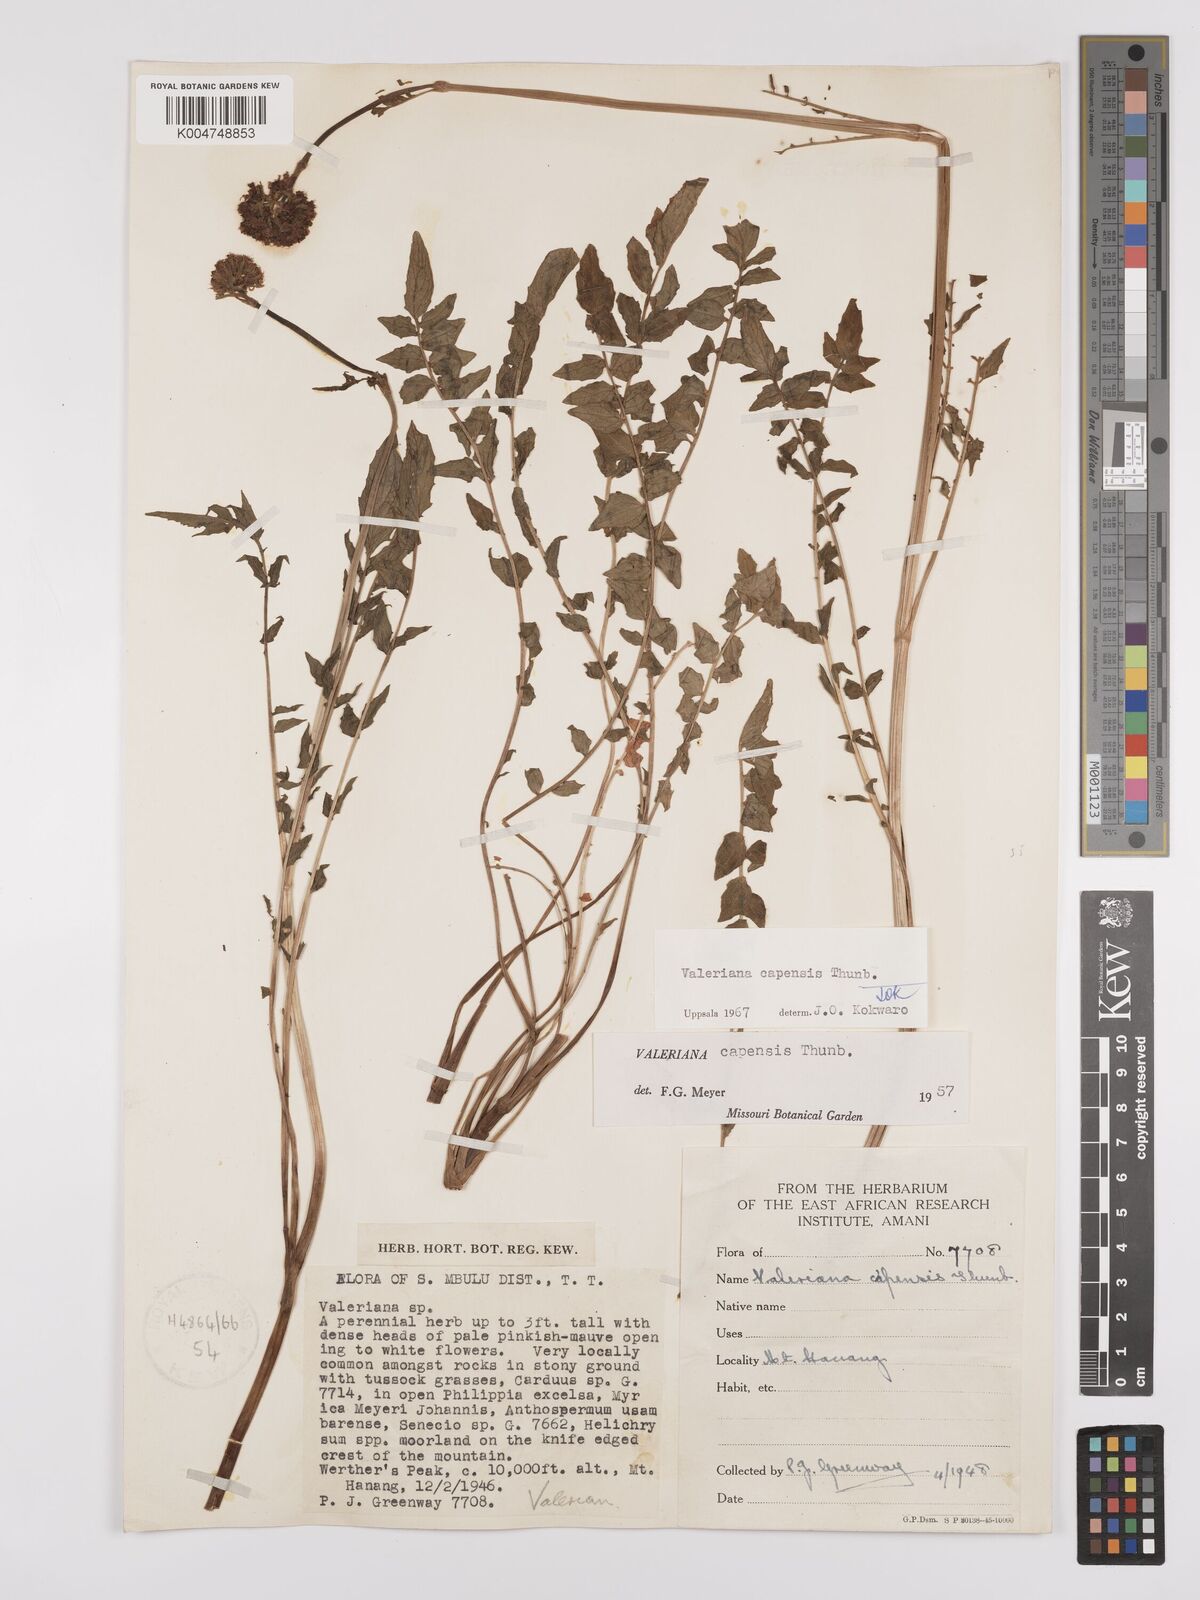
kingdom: Plantae
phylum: Tracheophyta
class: Magnoliopsida
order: Dipsacales
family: Caprifoliaceae
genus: Valeriana
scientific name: Valeriana capensis
